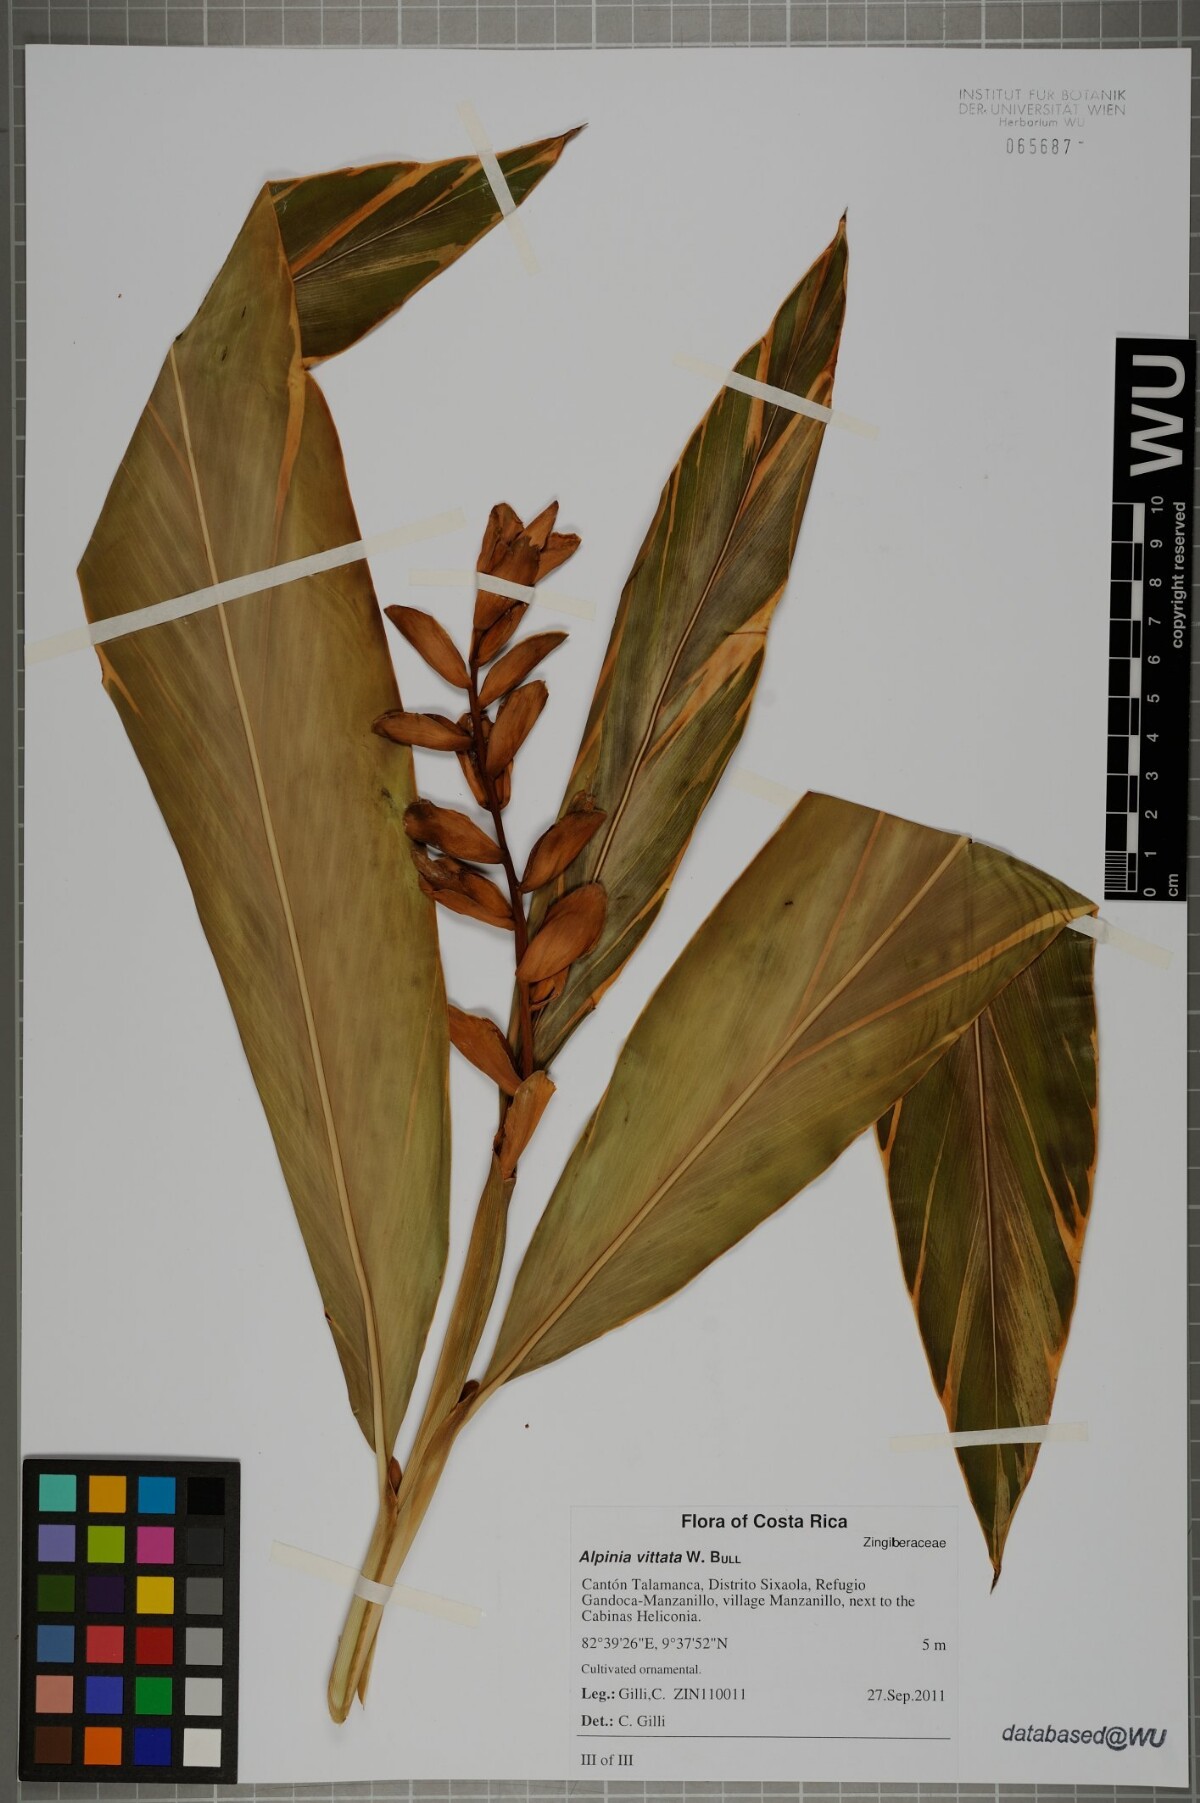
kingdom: Plantae
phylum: Tracheophyta
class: Liliopsida
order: Zingiberales
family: Zingiberaceae
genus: Alpinia
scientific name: Alpinia vittata
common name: Variegate-ginger
